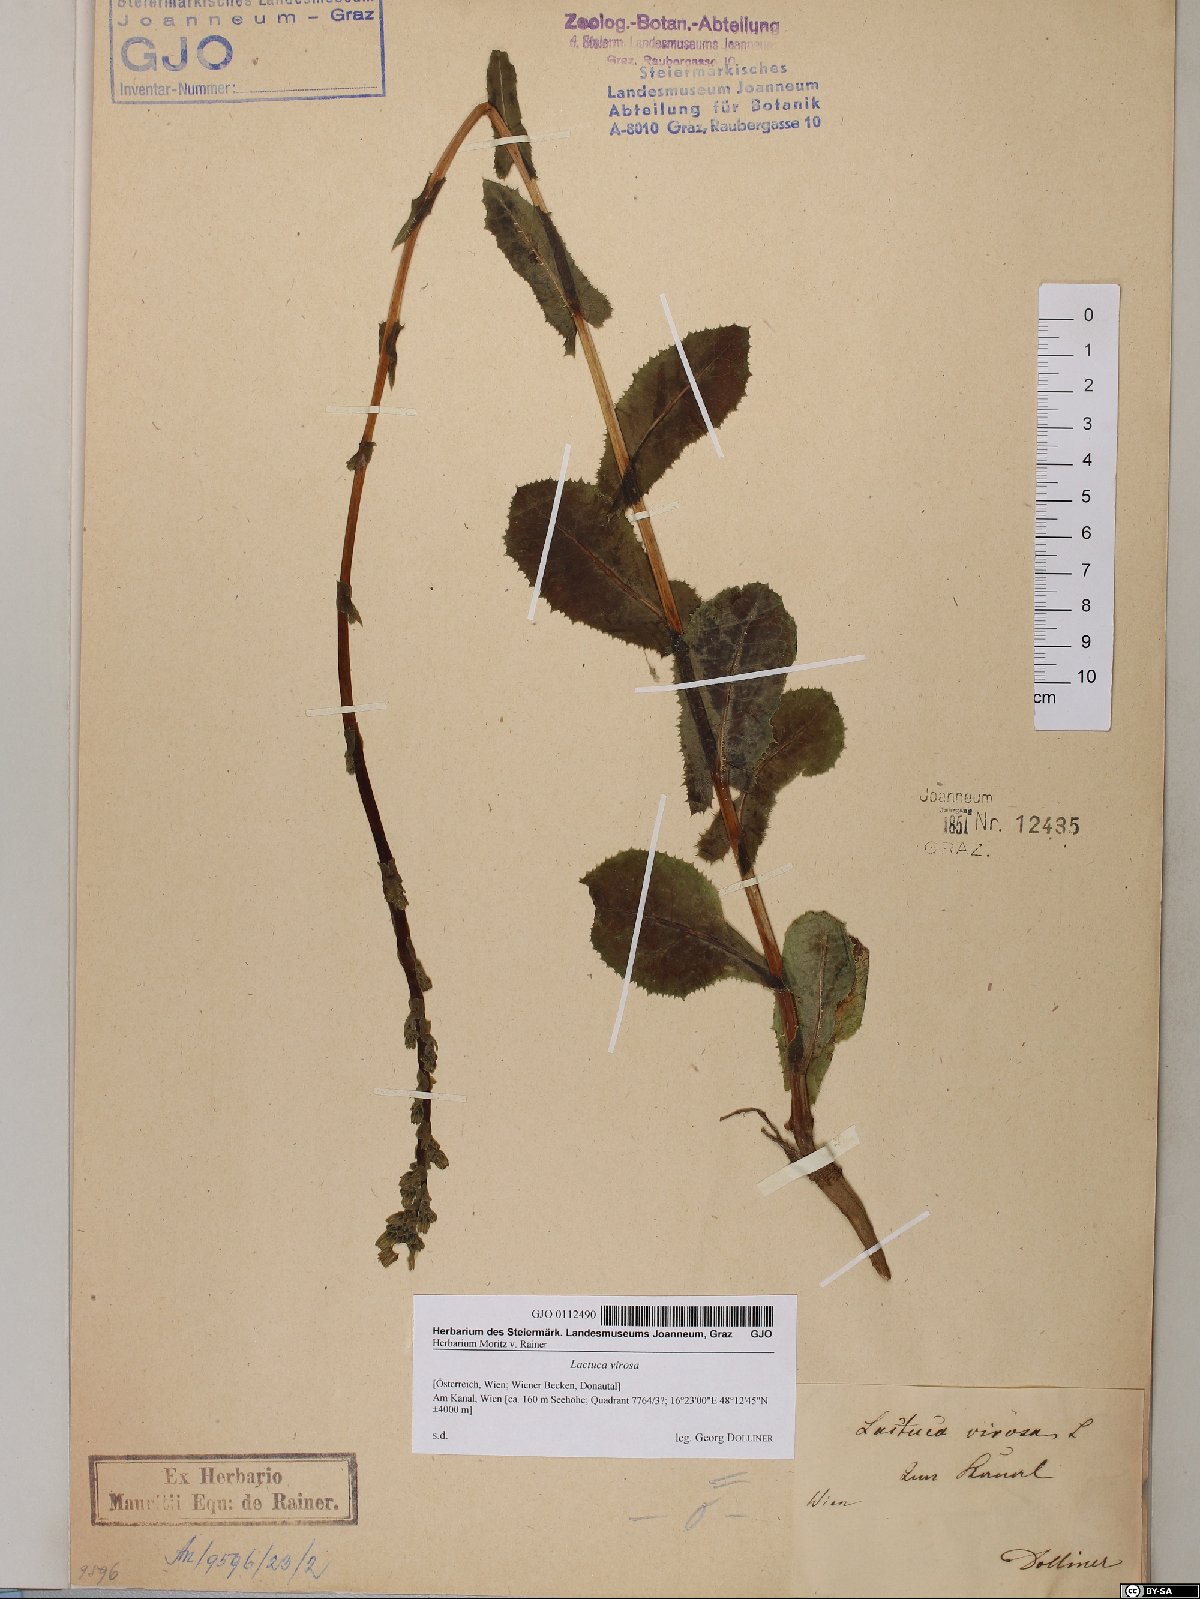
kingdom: Plantae
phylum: Tracheophyta
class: Magnoliopsida
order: Asterales
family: Asteraceae
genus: Lactuca
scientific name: Lactuca virosa
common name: Great lettuce
